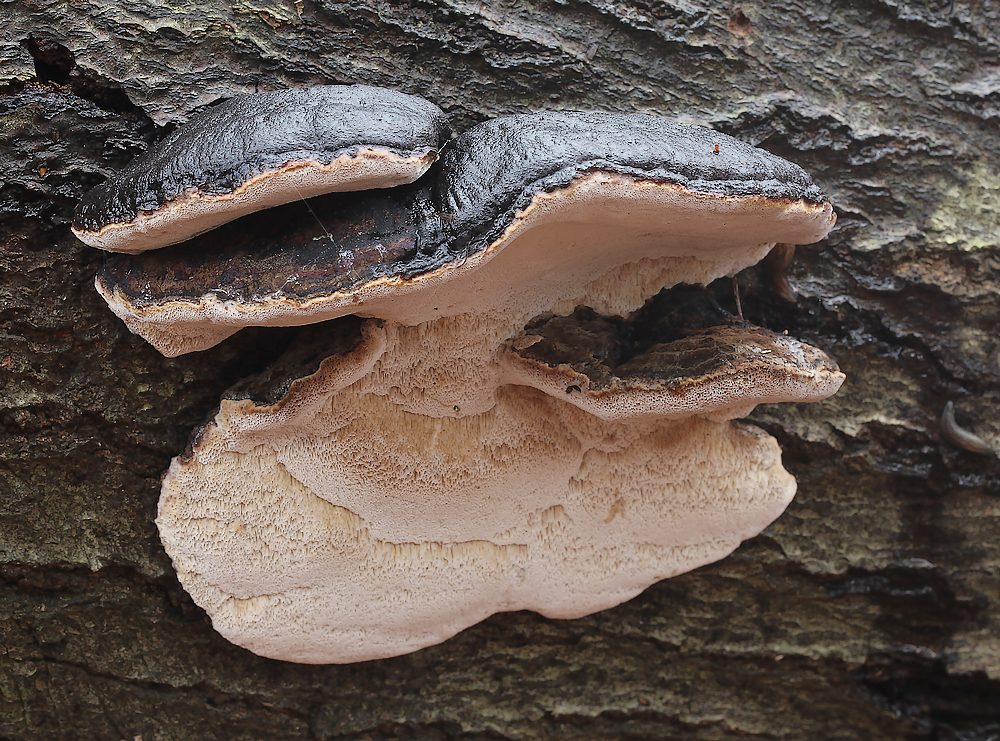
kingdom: Fungi
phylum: Basidiomycota
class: Agaricomycetes
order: Polyporales
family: Ischnodermataceae
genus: Ischnoderma
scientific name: Ischnoderma resinosum
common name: løv-tjæreporesvamp
